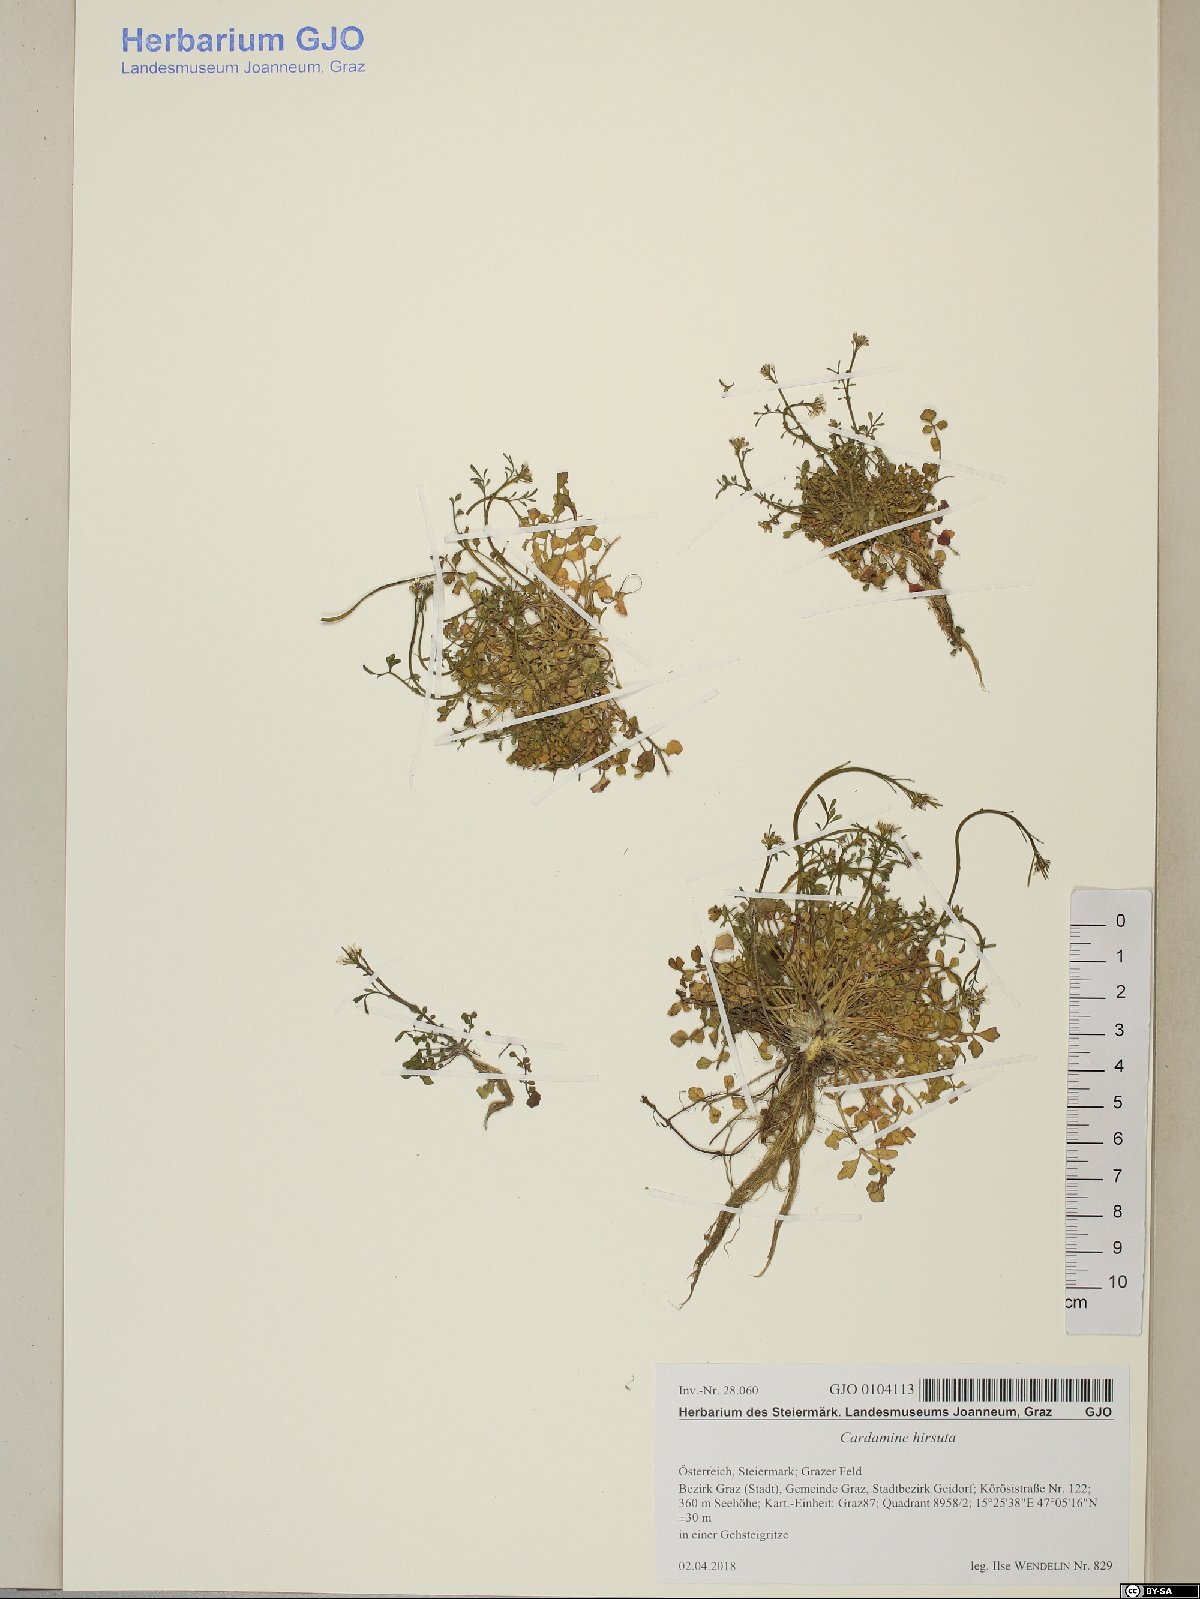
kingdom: Plantae
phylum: Tracheophyta
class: Magnoliopsida
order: Brassicales
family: Brassicaceae
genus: Cardamine
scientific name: Cardamine hirsuta
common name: Hairy bittercress
